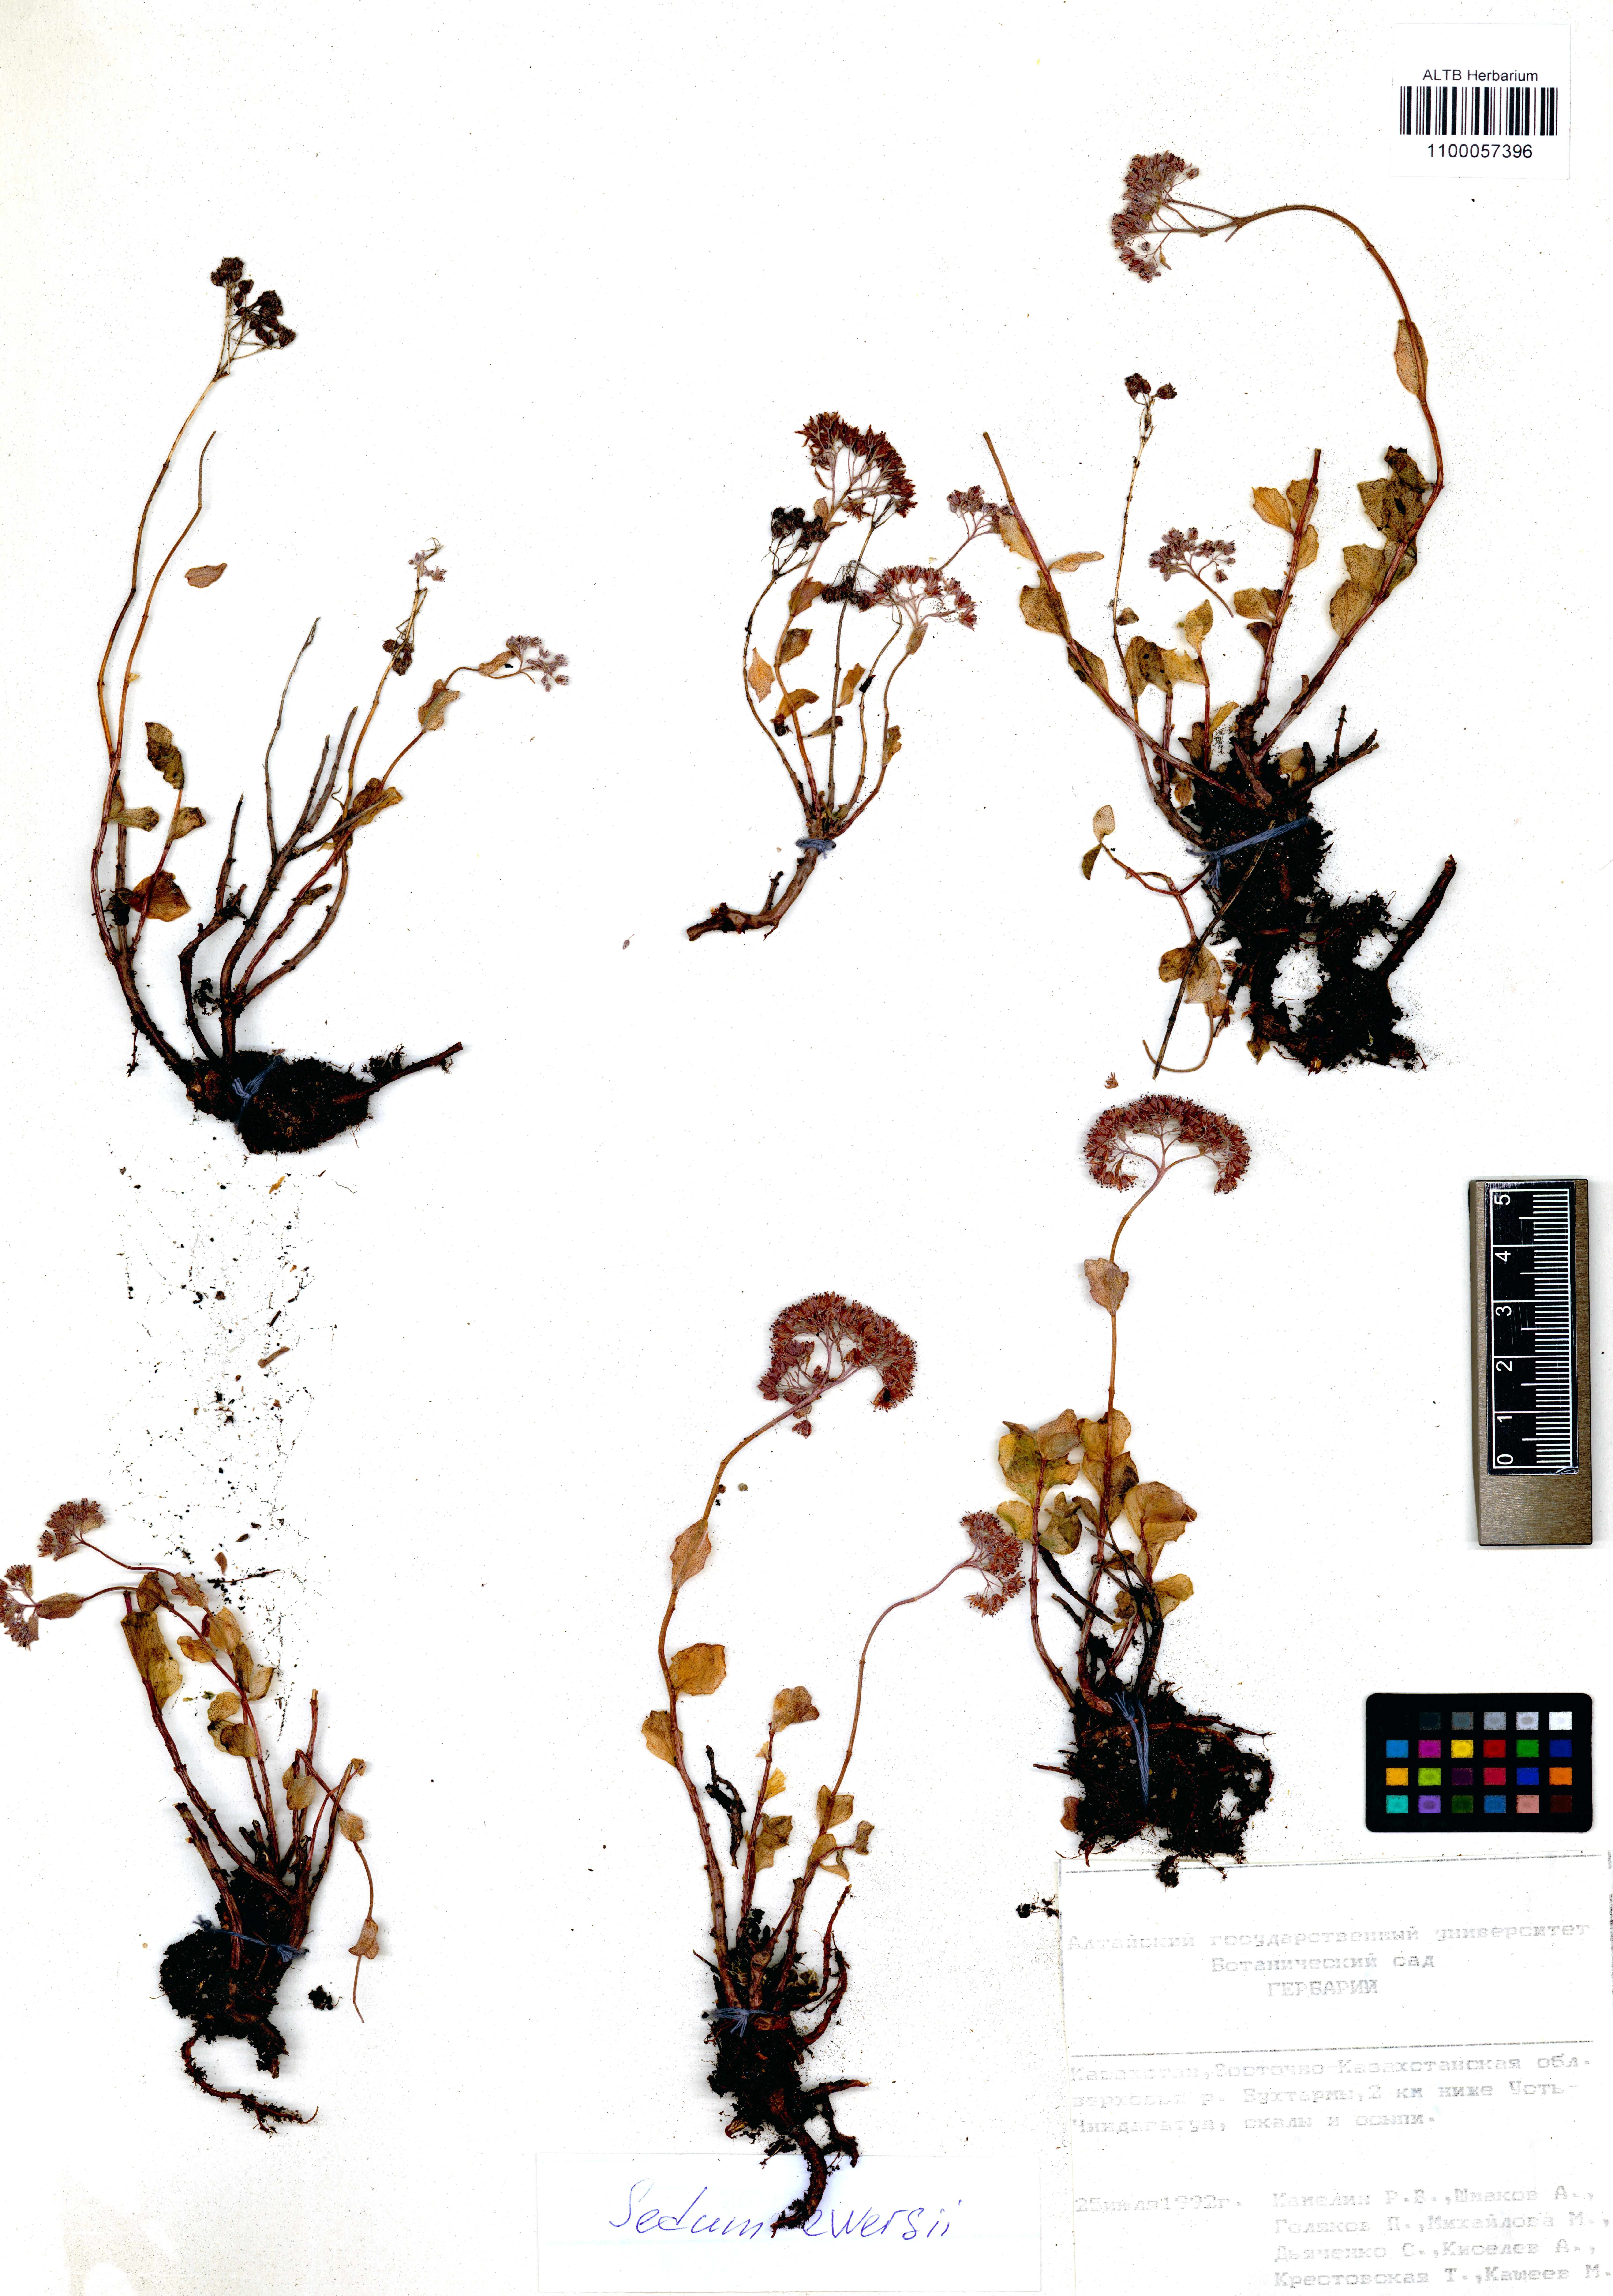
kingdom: Plantae
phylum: Tracheophyta
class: Magnoliopsida
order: Saxifragales
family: Crassulaceae
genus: Hylotelephium
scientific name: Hylotelephium ewersii
